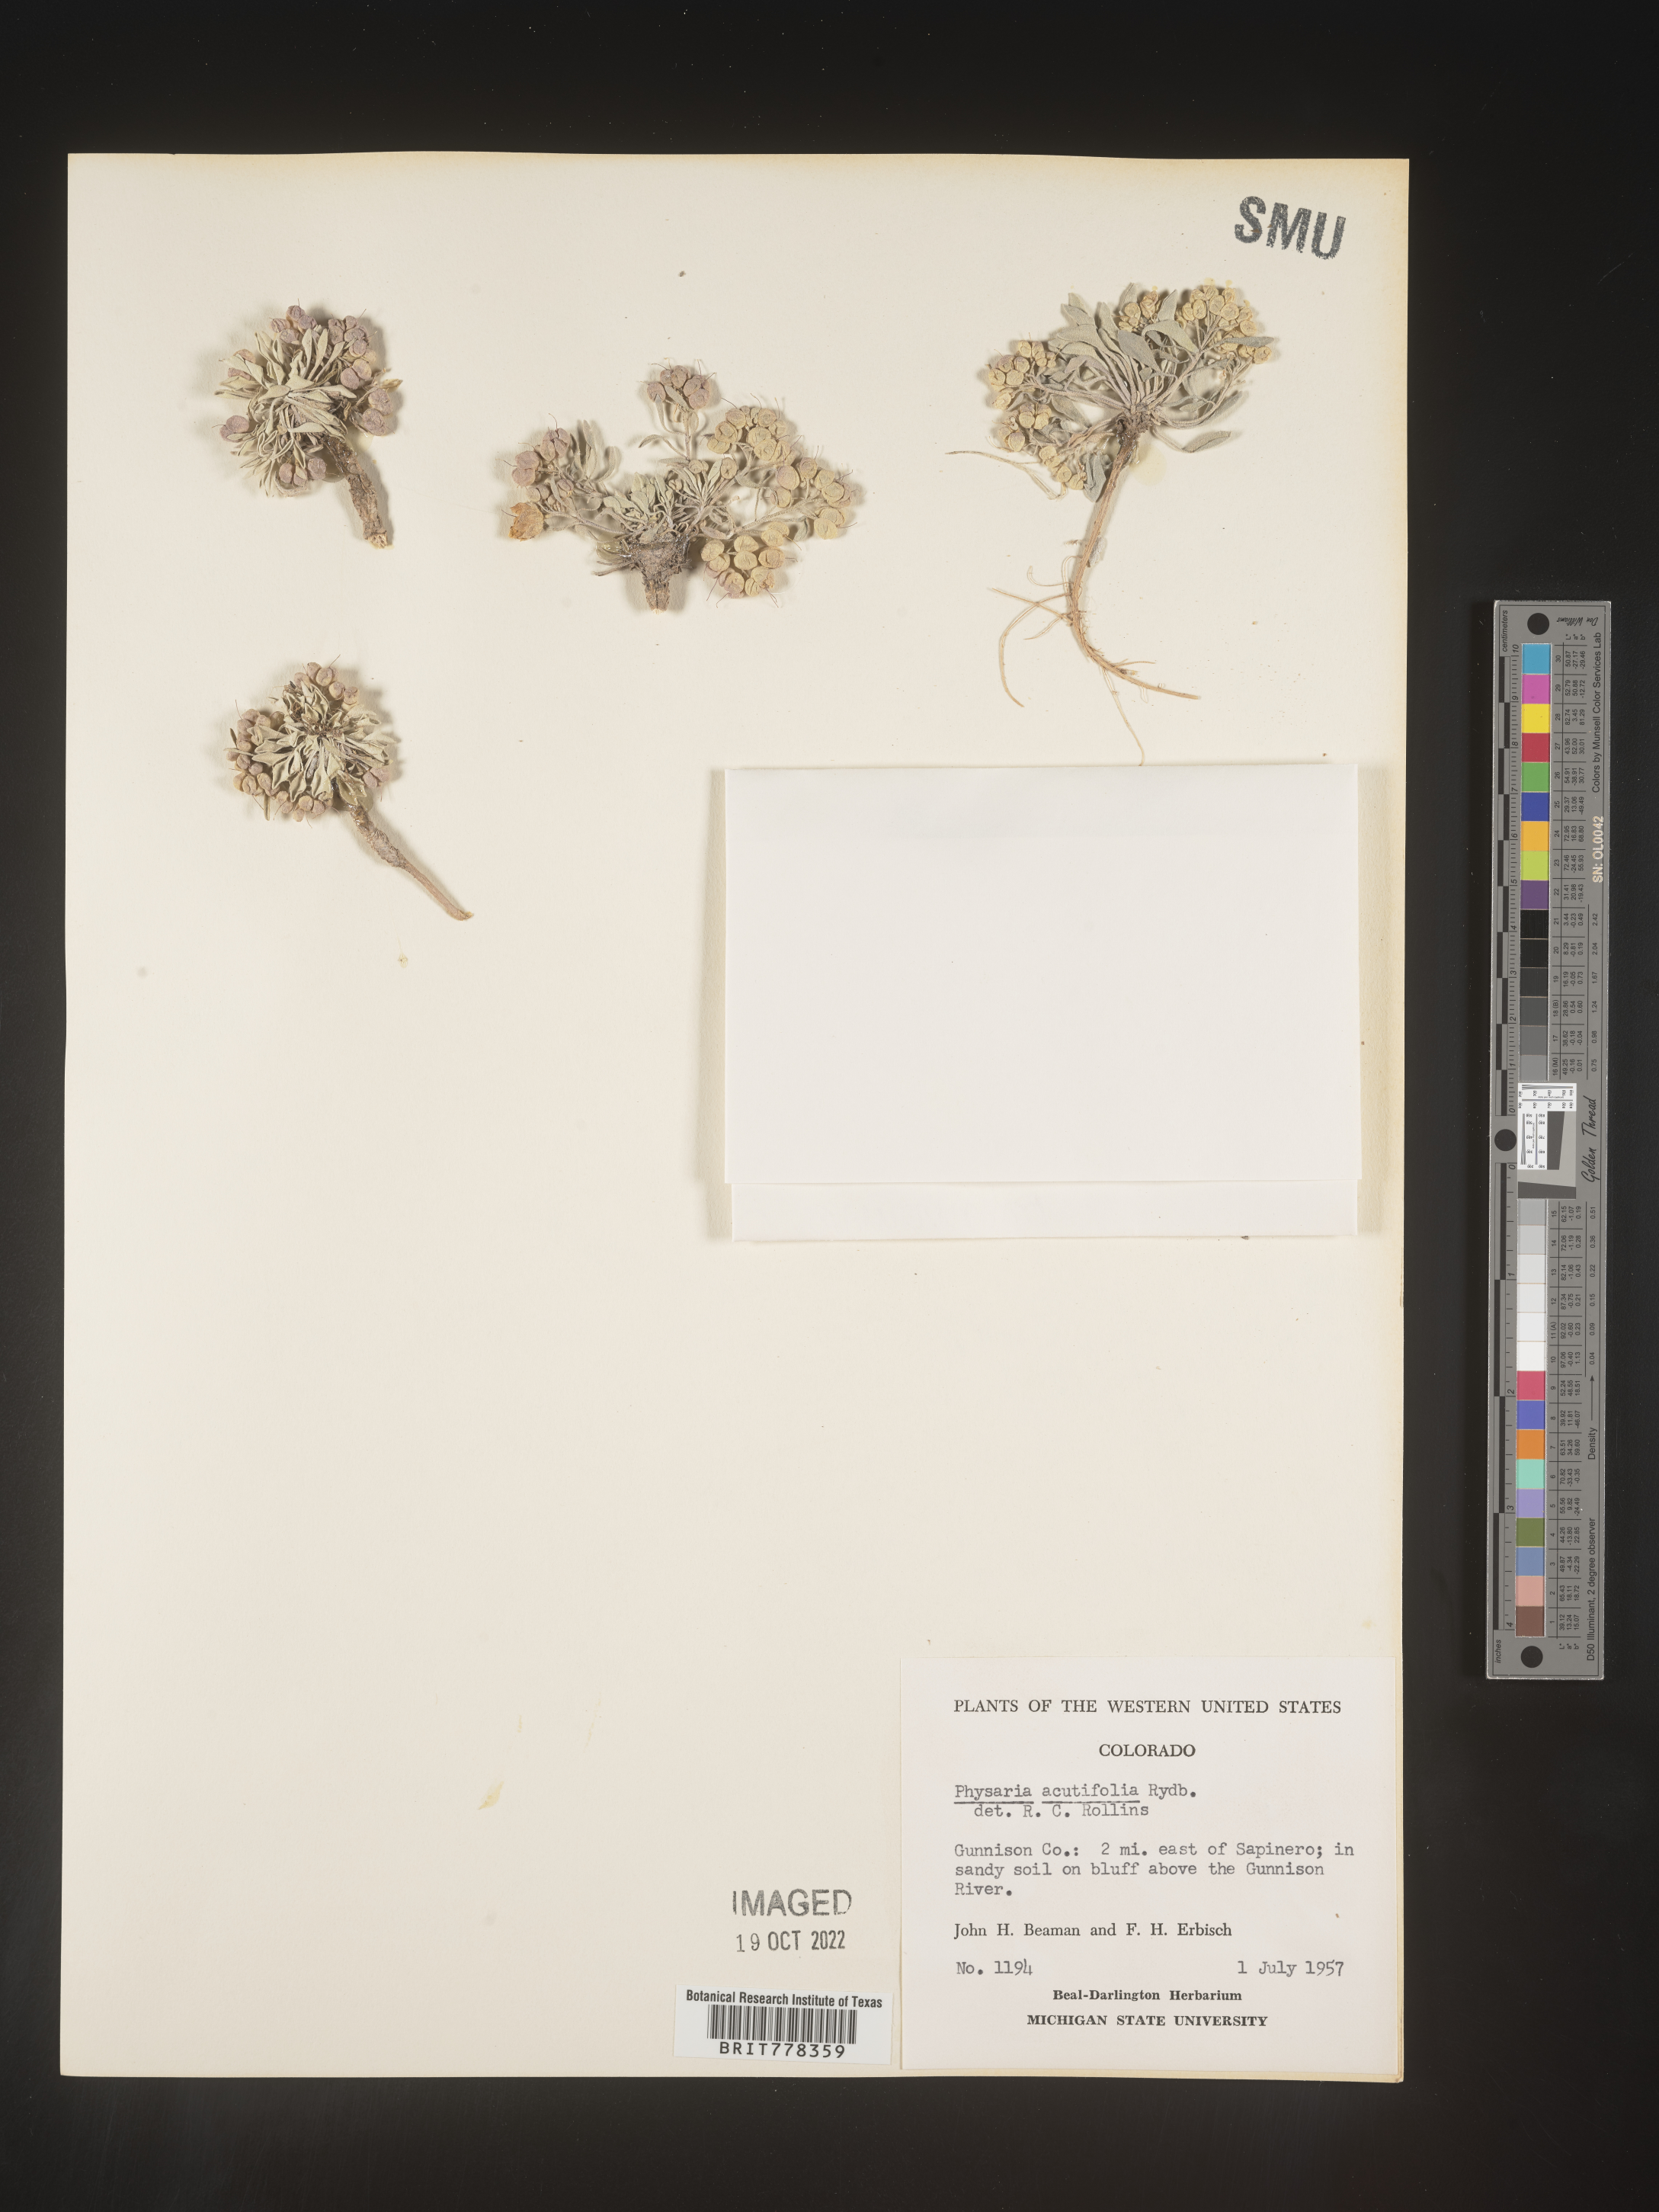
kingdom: Plantae
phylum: Tracheophyta
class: Magnoliopsida
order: Brassicales
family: Brassicaceae
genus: Physaria
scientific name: Physaria
